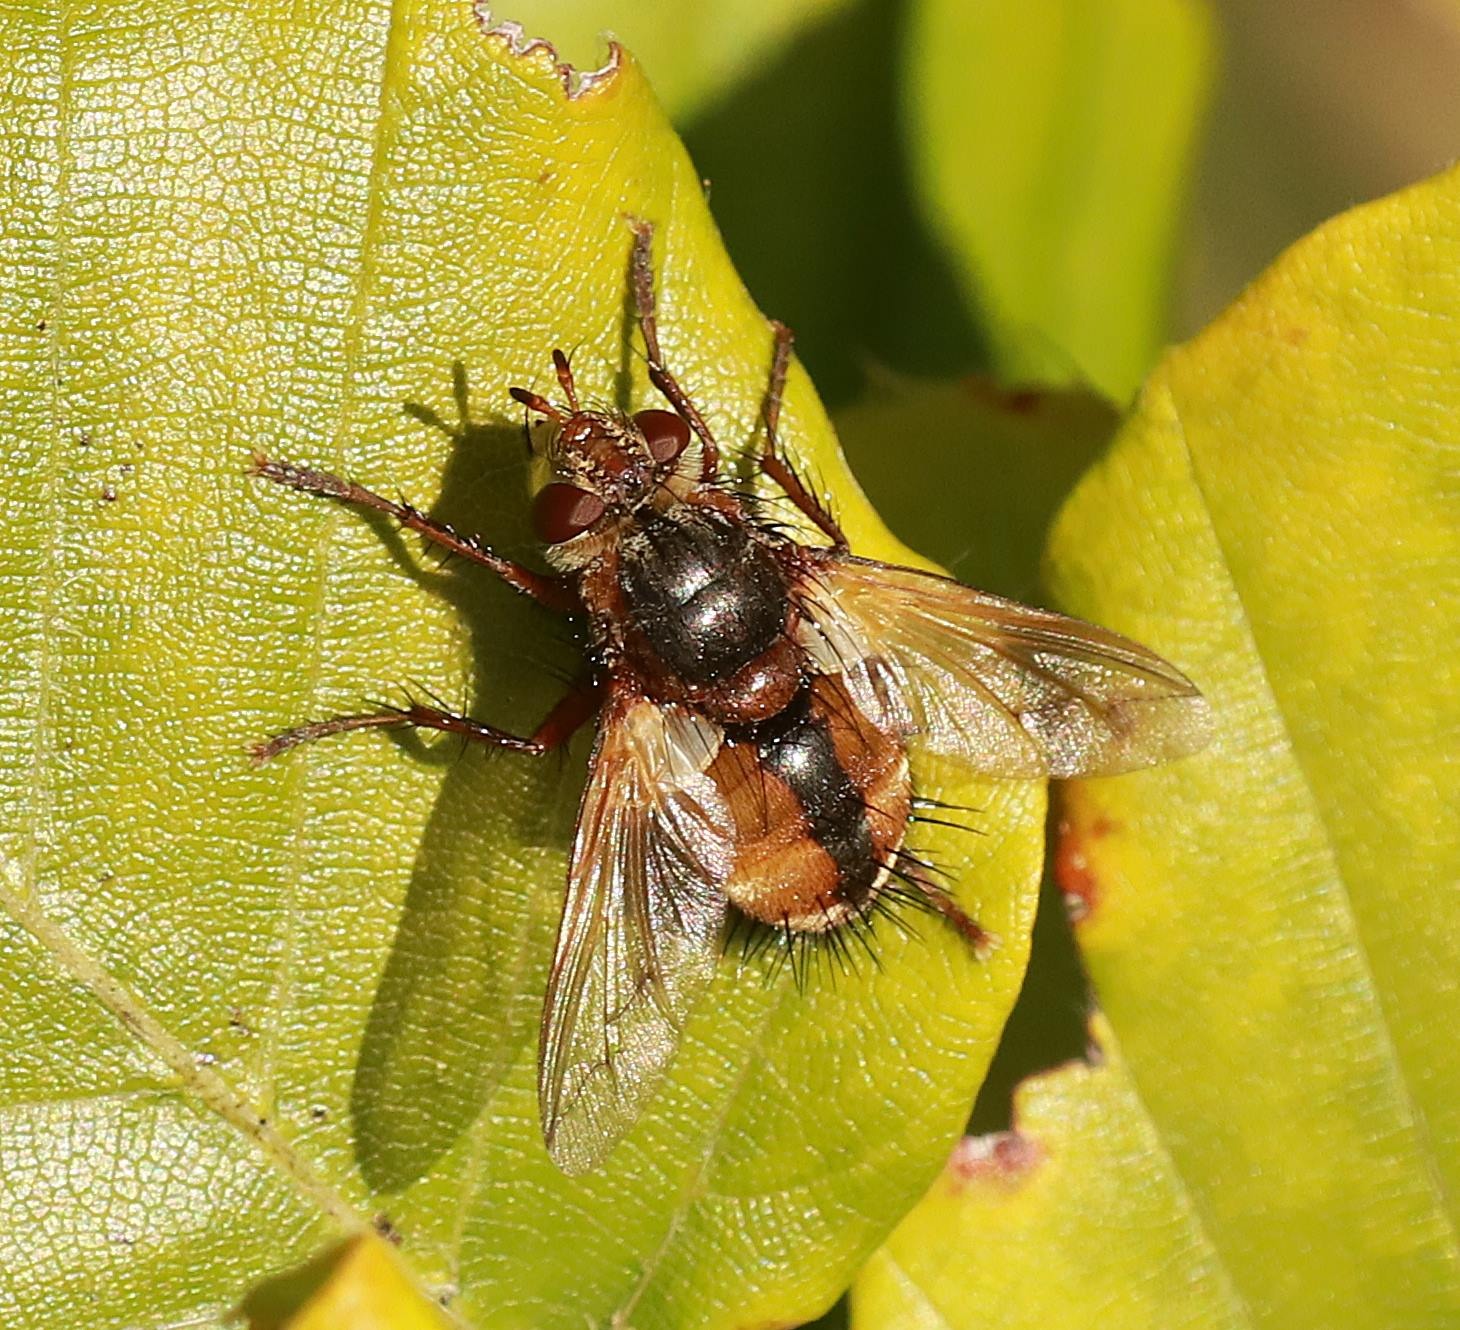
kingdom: Animalia
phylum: Arthropoda
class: Insecta
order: Diptera
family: Tachinidae
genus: Tachina
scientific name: Tachina fera
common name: Mellemfluen oskar
